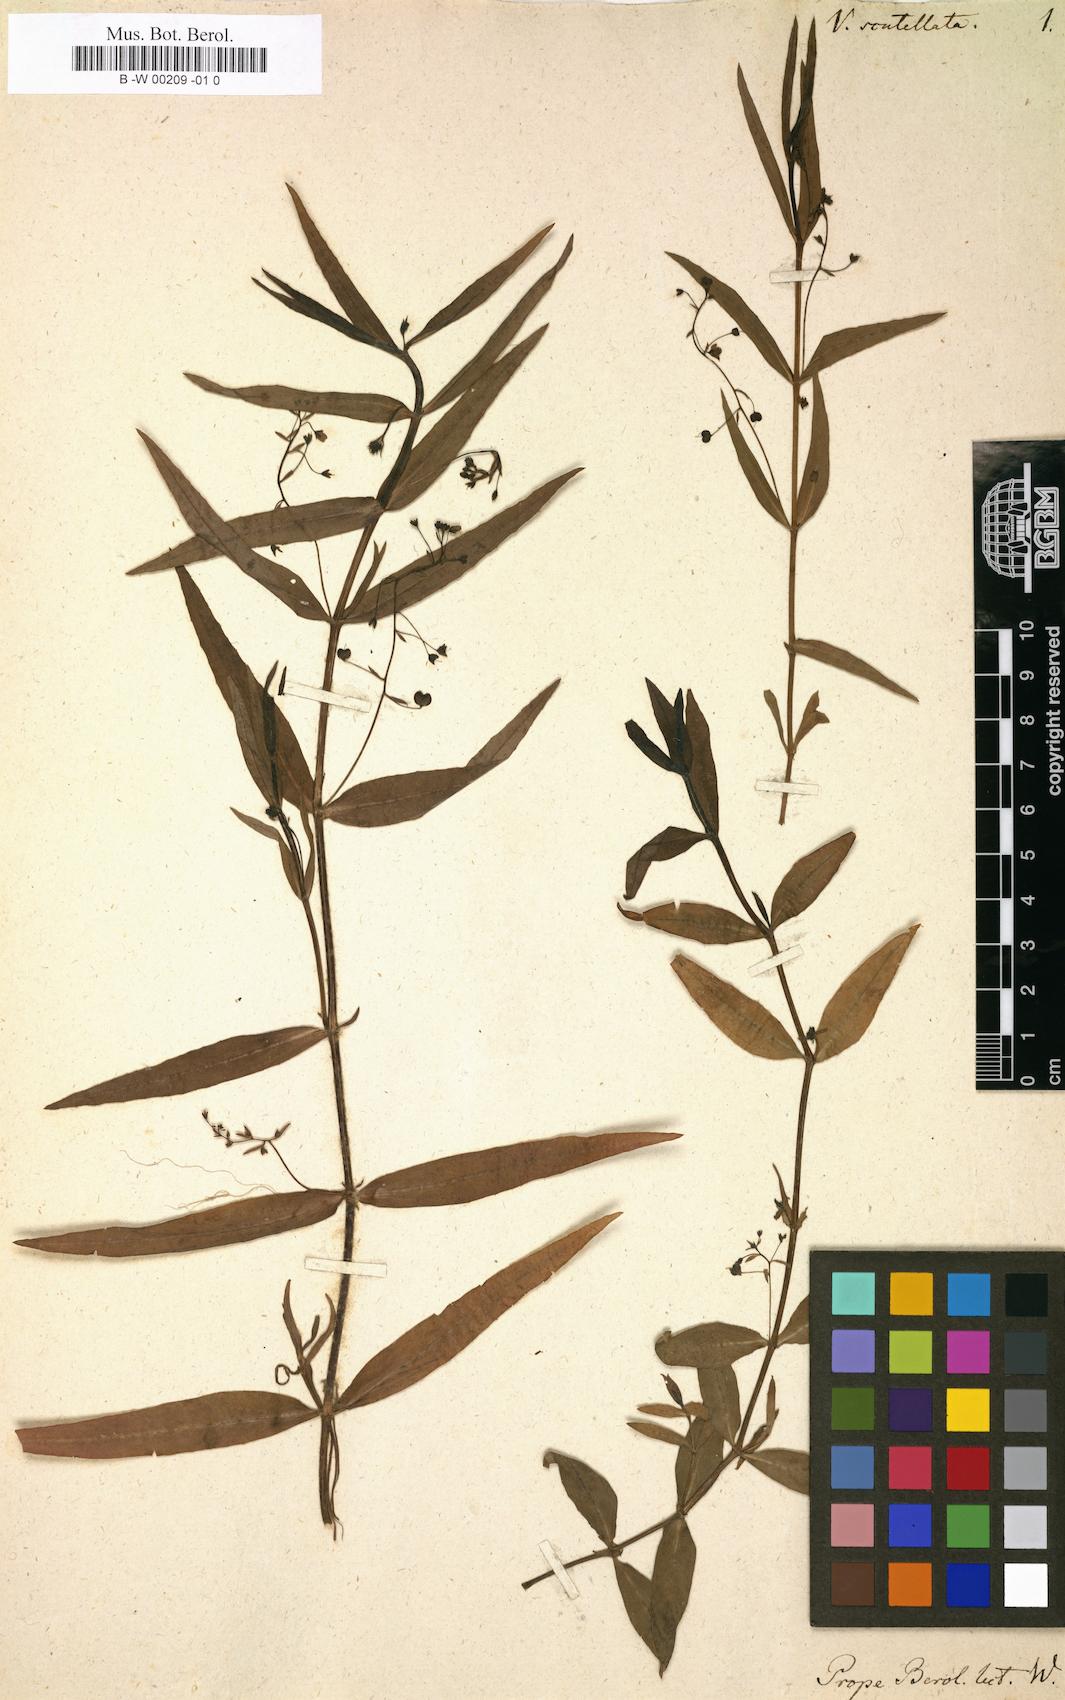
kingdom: Plantae
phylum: Tracheophyta
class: Magnoliopsida
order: Lamiales
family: Plantaginaceae
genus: Veronica
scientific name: Veronica scutellata
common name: Marsh speedwell
